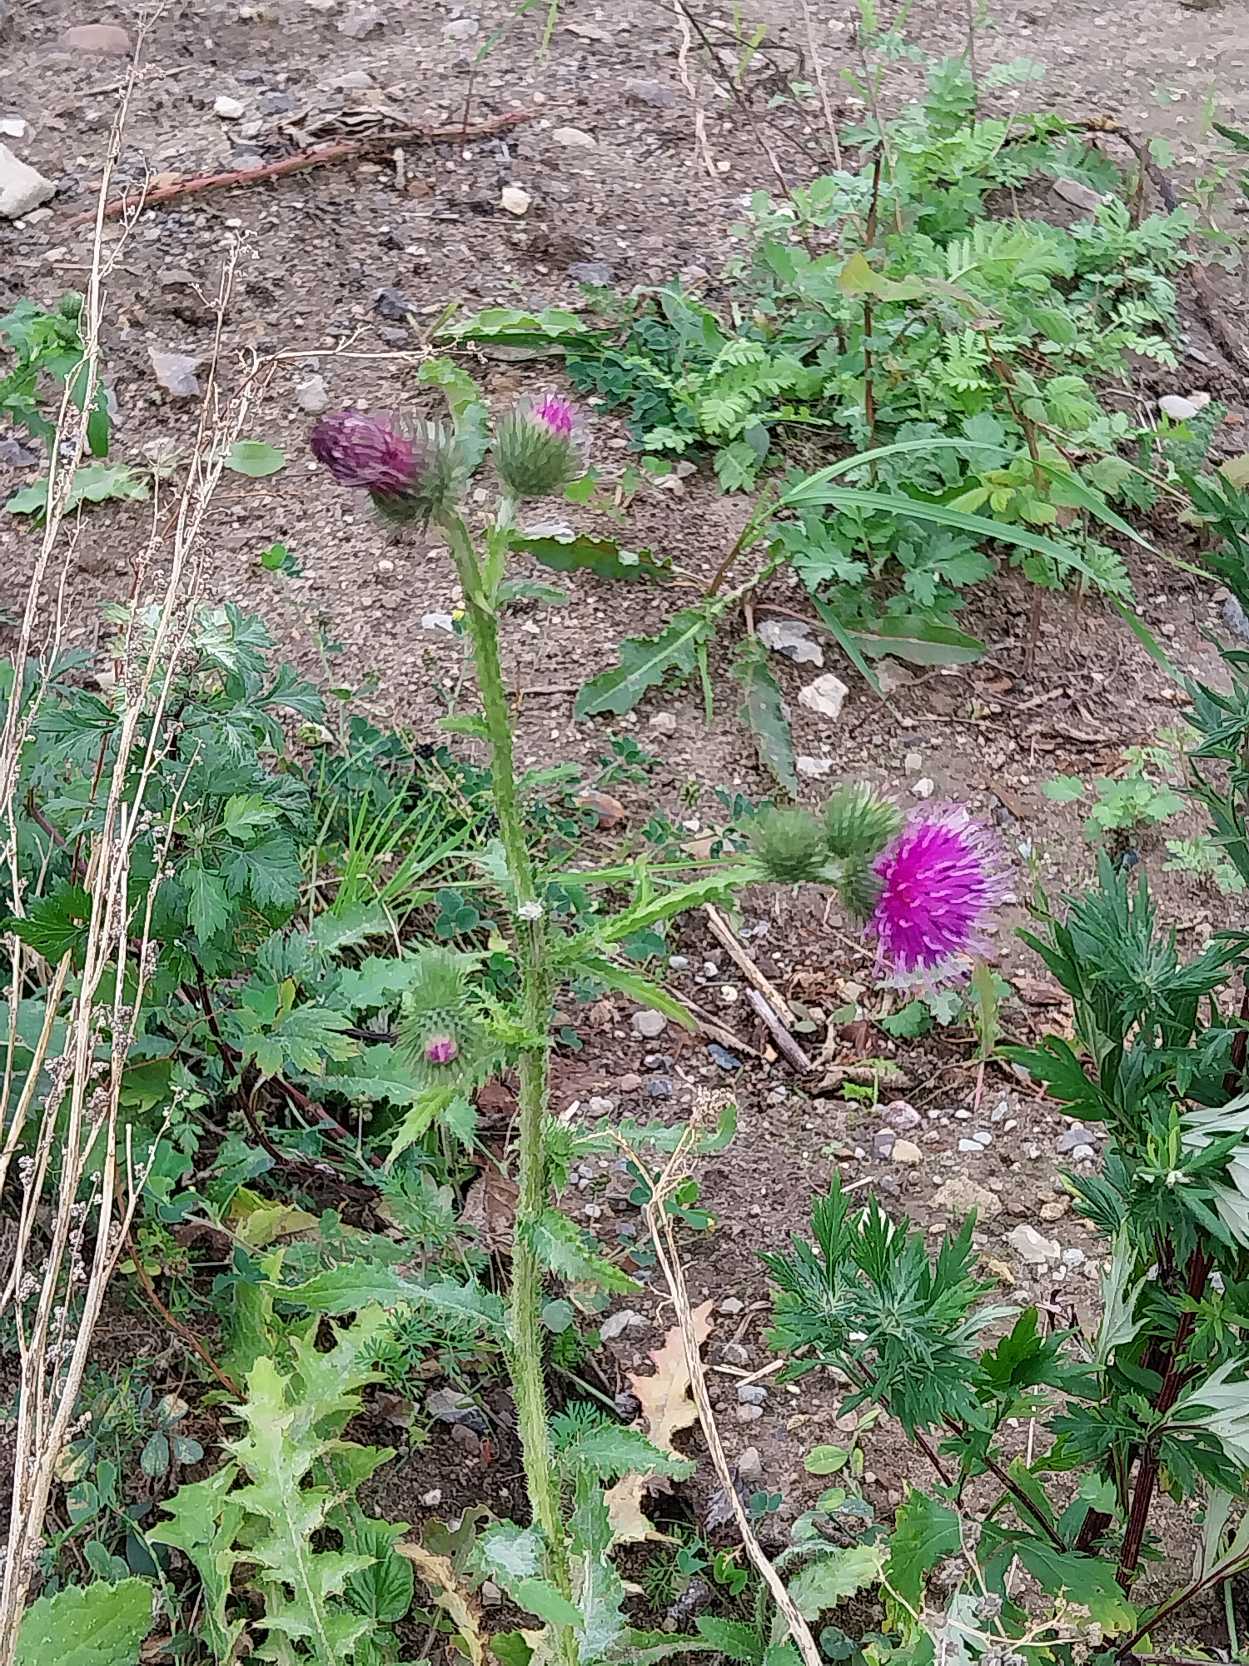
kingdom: Plantae
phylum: Tracheophyta
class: Magnoliopsida
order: Asterales
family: Asteraceae
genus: Carduus
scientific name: Carduus crispus
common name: Kruset tidsel
